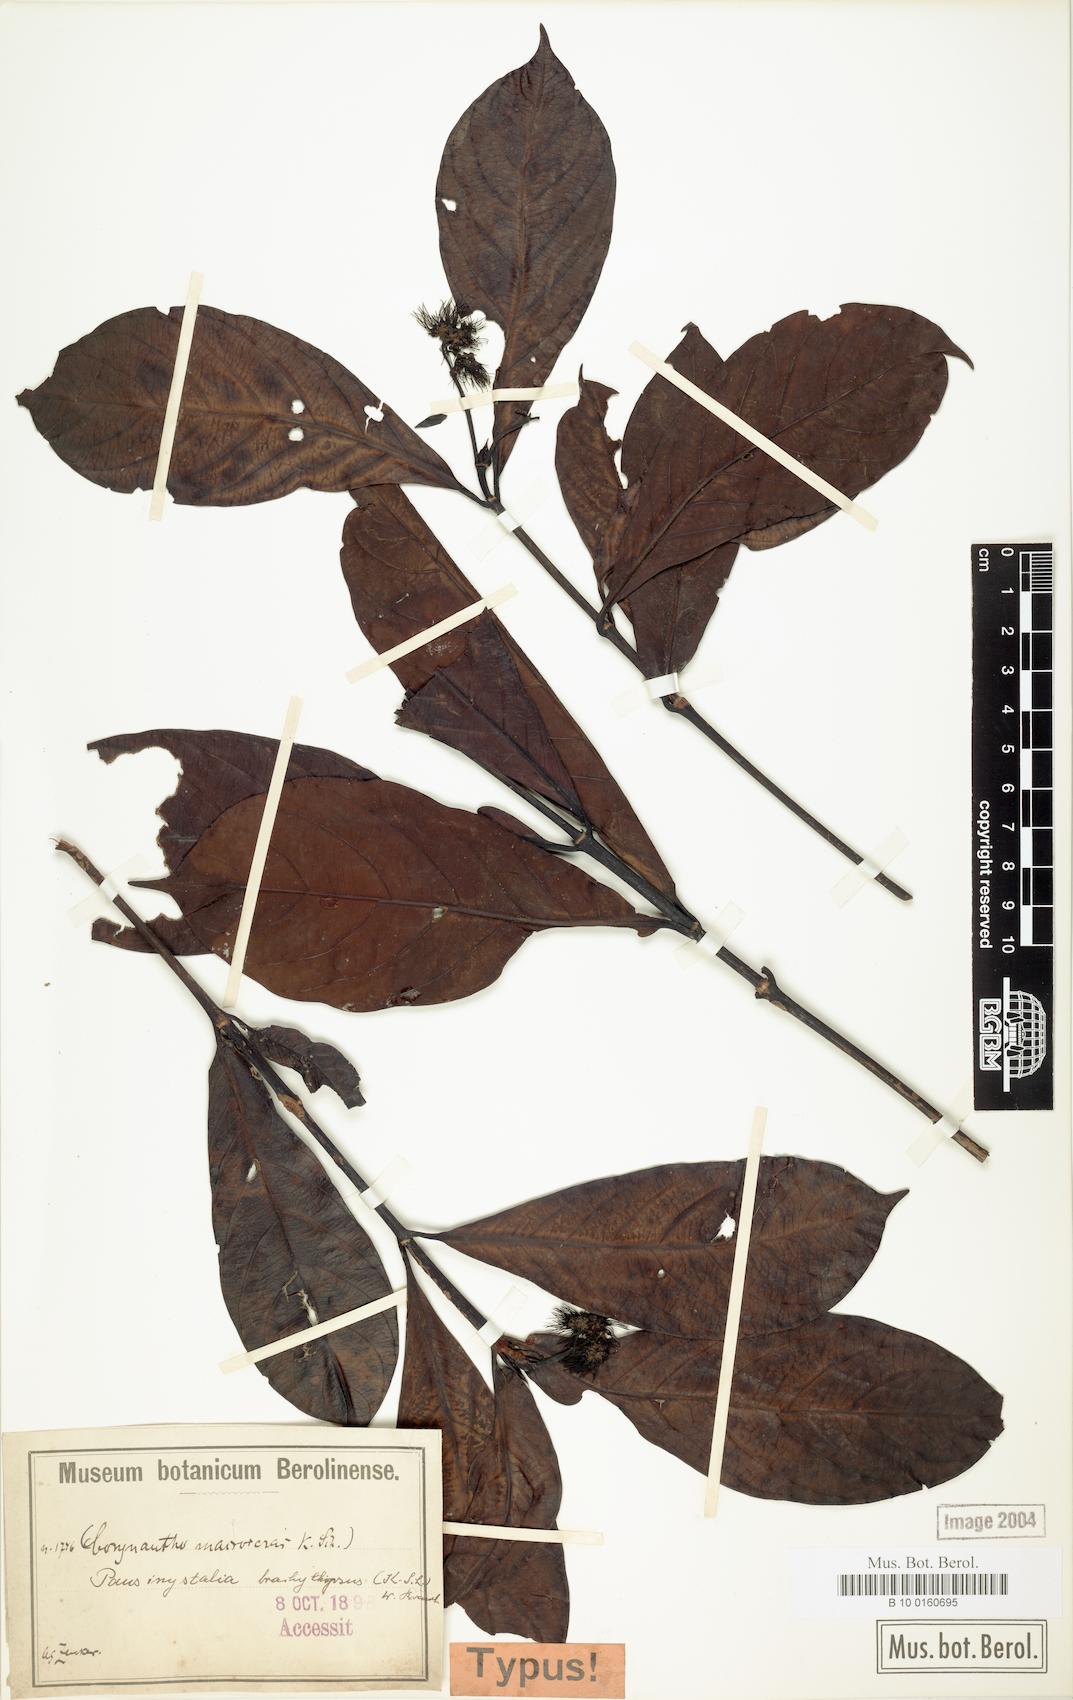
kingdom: Plantae
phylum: Tracheophyta
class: Magnoliopsida
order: Gentianales
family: Rubiaceae
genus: Corynanthe
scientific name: Corynanthe macroceras
